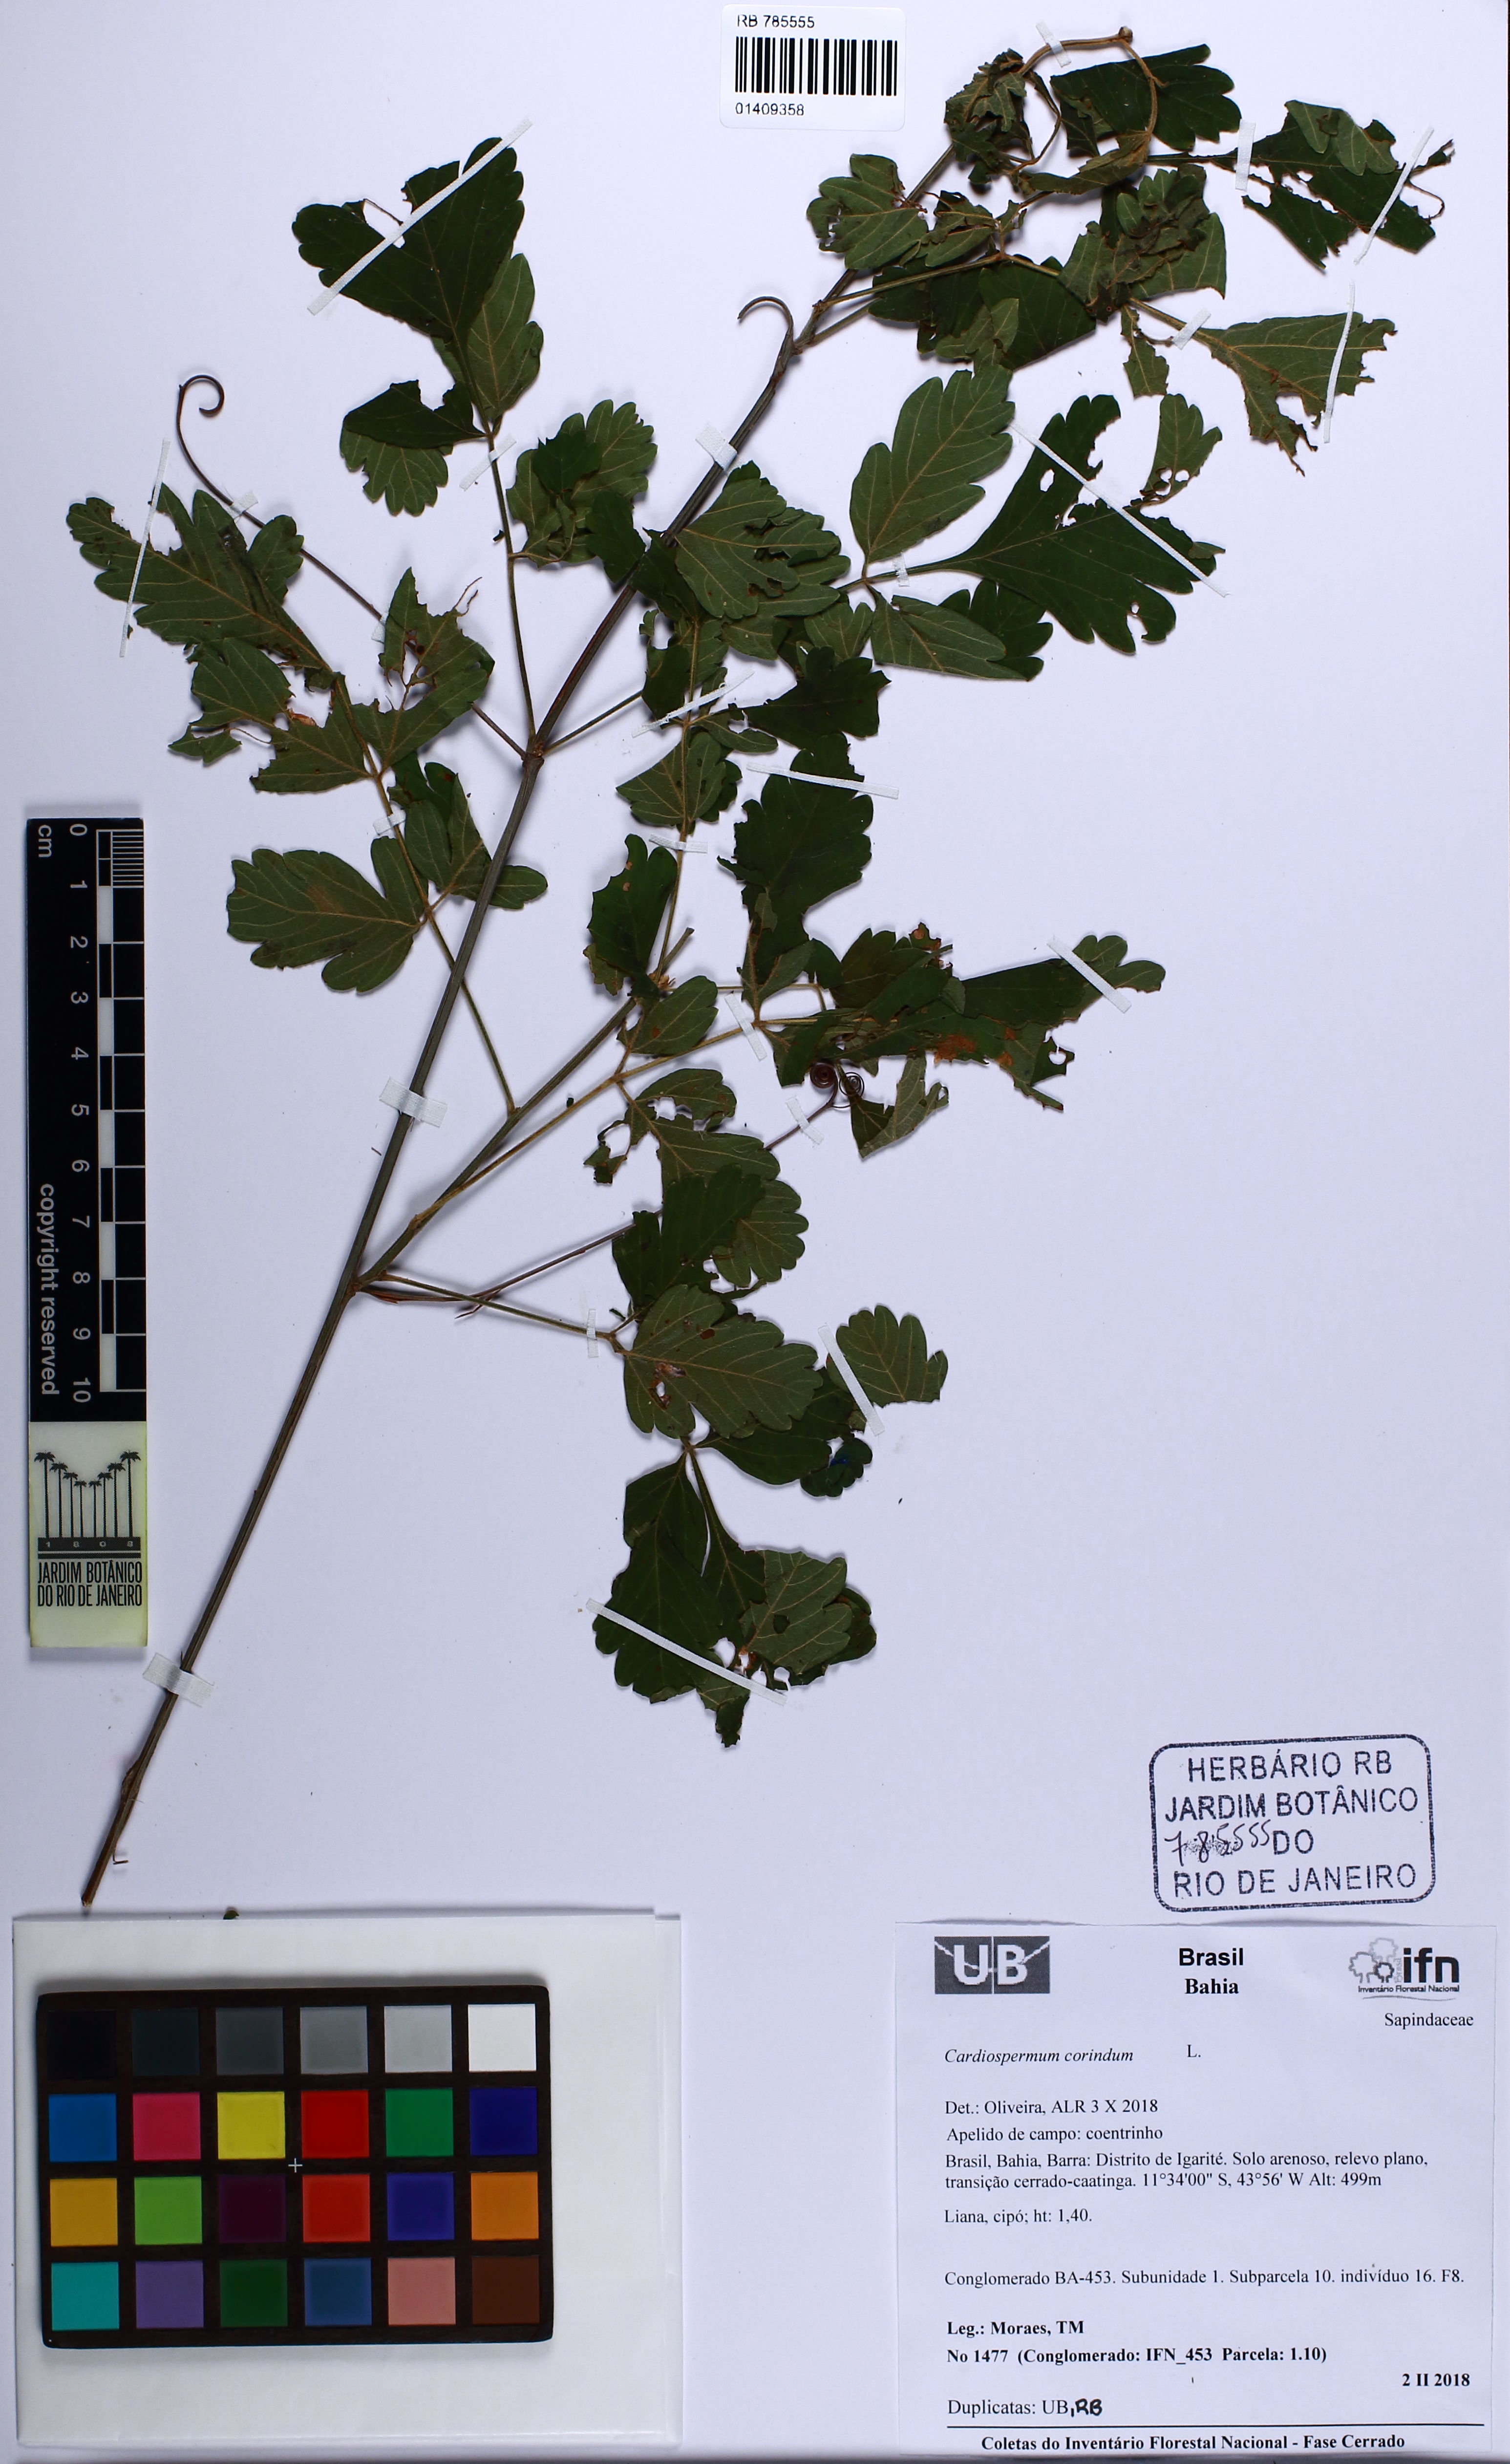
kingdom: Plantae
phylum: Tracheophyta
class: Magnoliopsida
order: Sapindales
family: Sapindaceae
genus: Cardiospermum
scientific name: Cardiospermum corindum
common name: Faux persil
